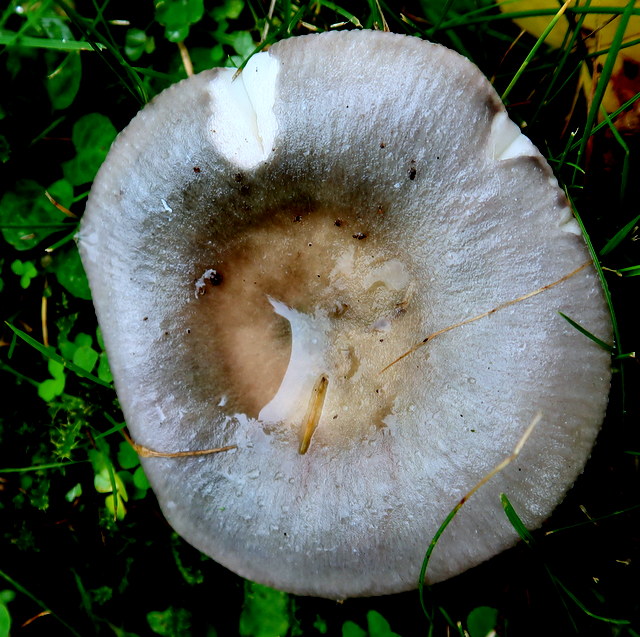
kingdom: Fungi
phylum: Basidiomycota
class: Agaricomycetes
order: Russulales
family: Russulaceae
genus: Russula
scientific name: Russula grisea
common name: grålig skørhat
